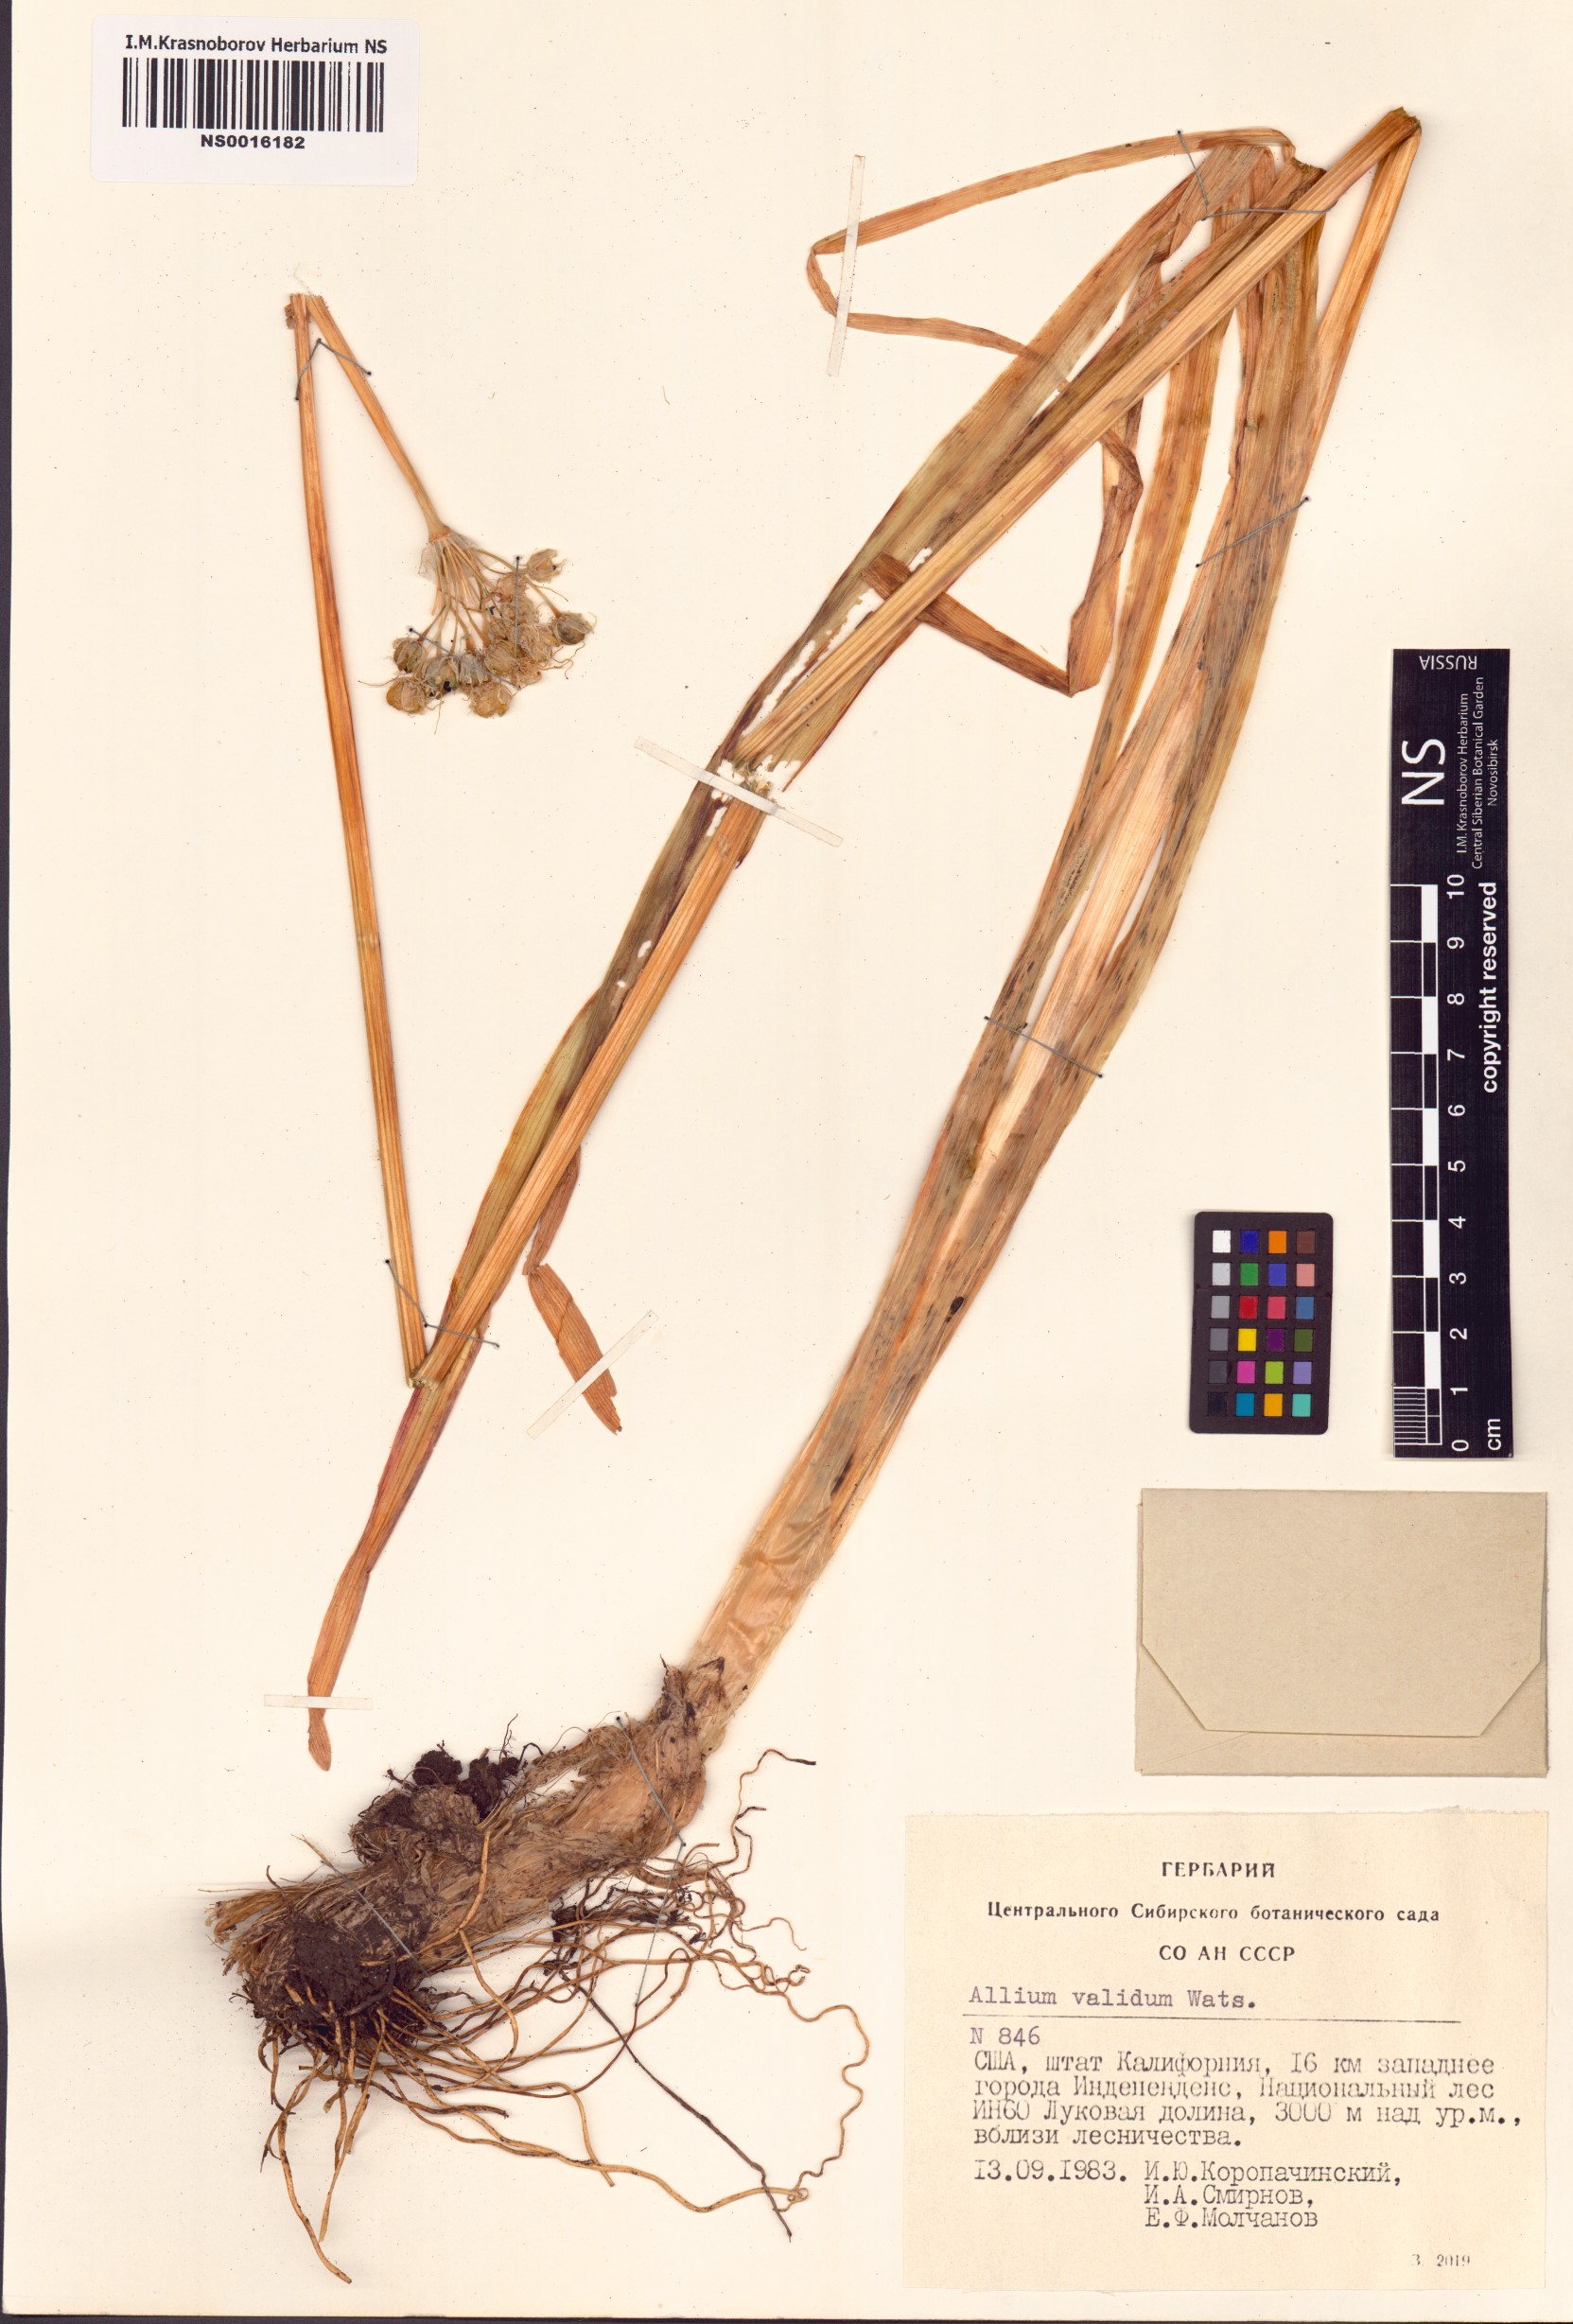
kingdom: Plantae
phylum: Tracheophyta
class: Liliopsida
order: Asparagales
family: Amaryllidaceae
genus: Allium
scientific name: Allium validum
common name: Pacific mountain onion
